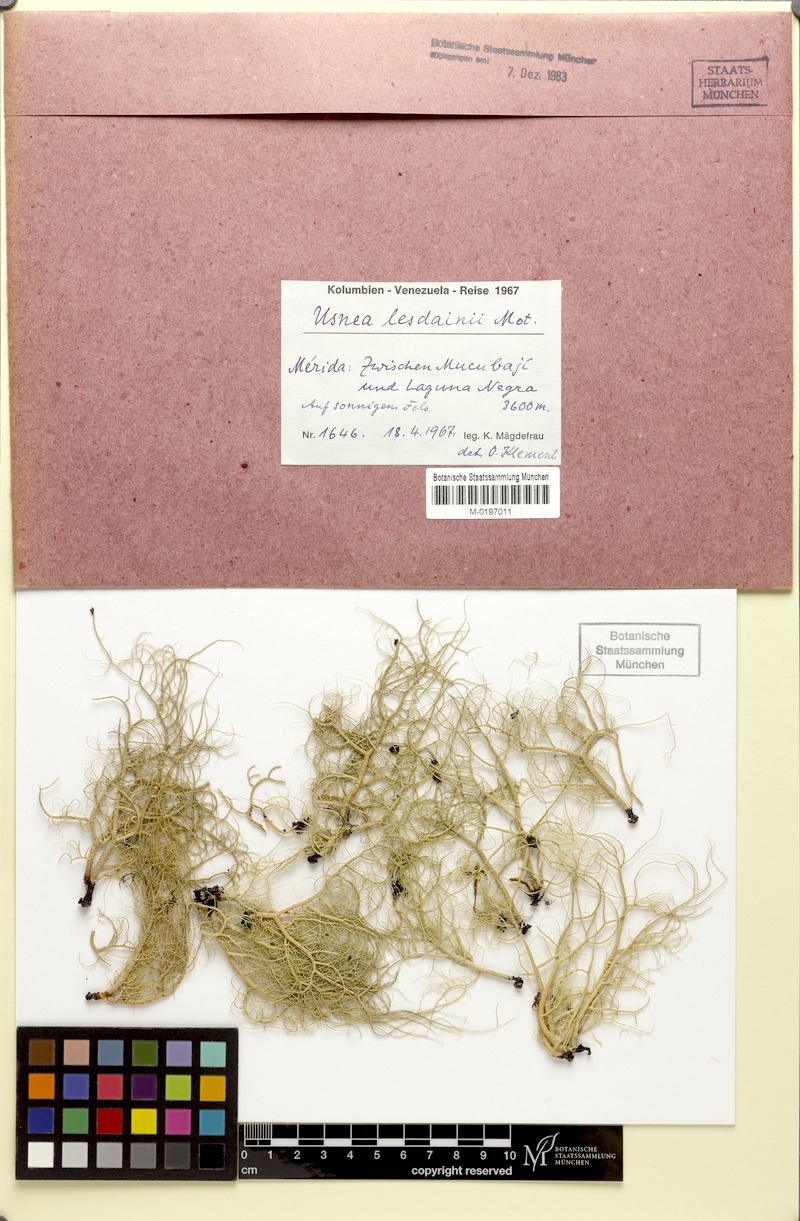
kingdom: Fungi
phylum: Ascomycota
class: Lecanoromycetes
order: Lecanorales
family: Parmeliaceae
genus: Usnea
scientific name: Usnea lesdainii
